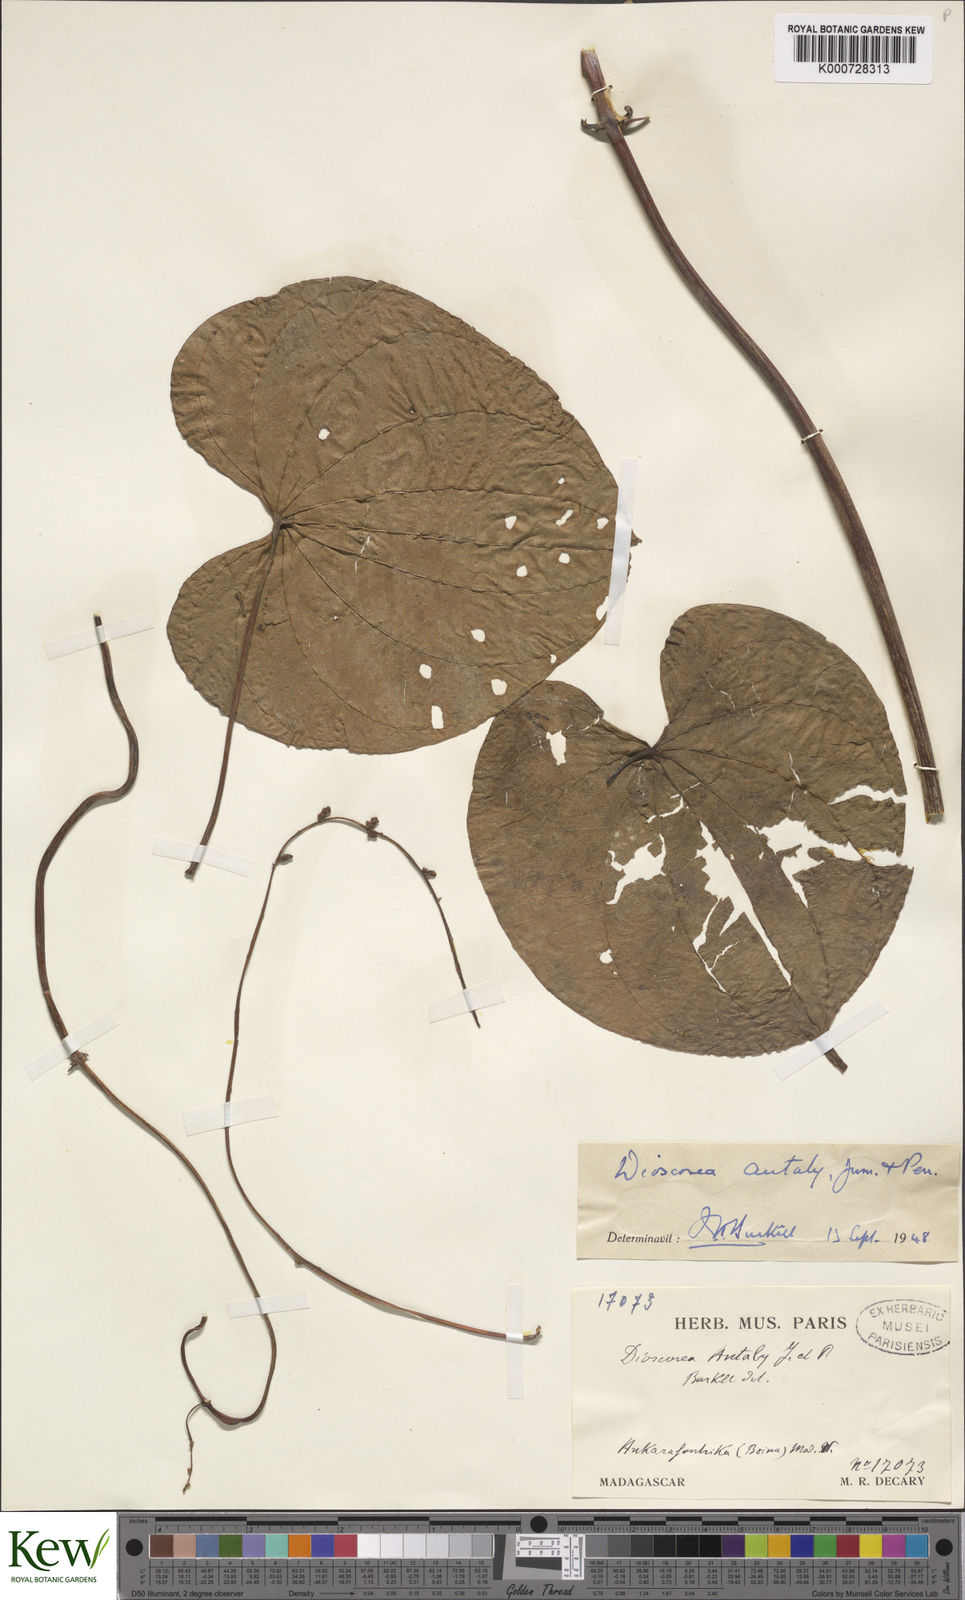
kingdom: Plantae
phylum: Tracheophyta
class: Liliopsida
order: Dioscoreales
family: Dioscoreaceae
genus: Dioscorea
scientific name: Dioscorea antaly
